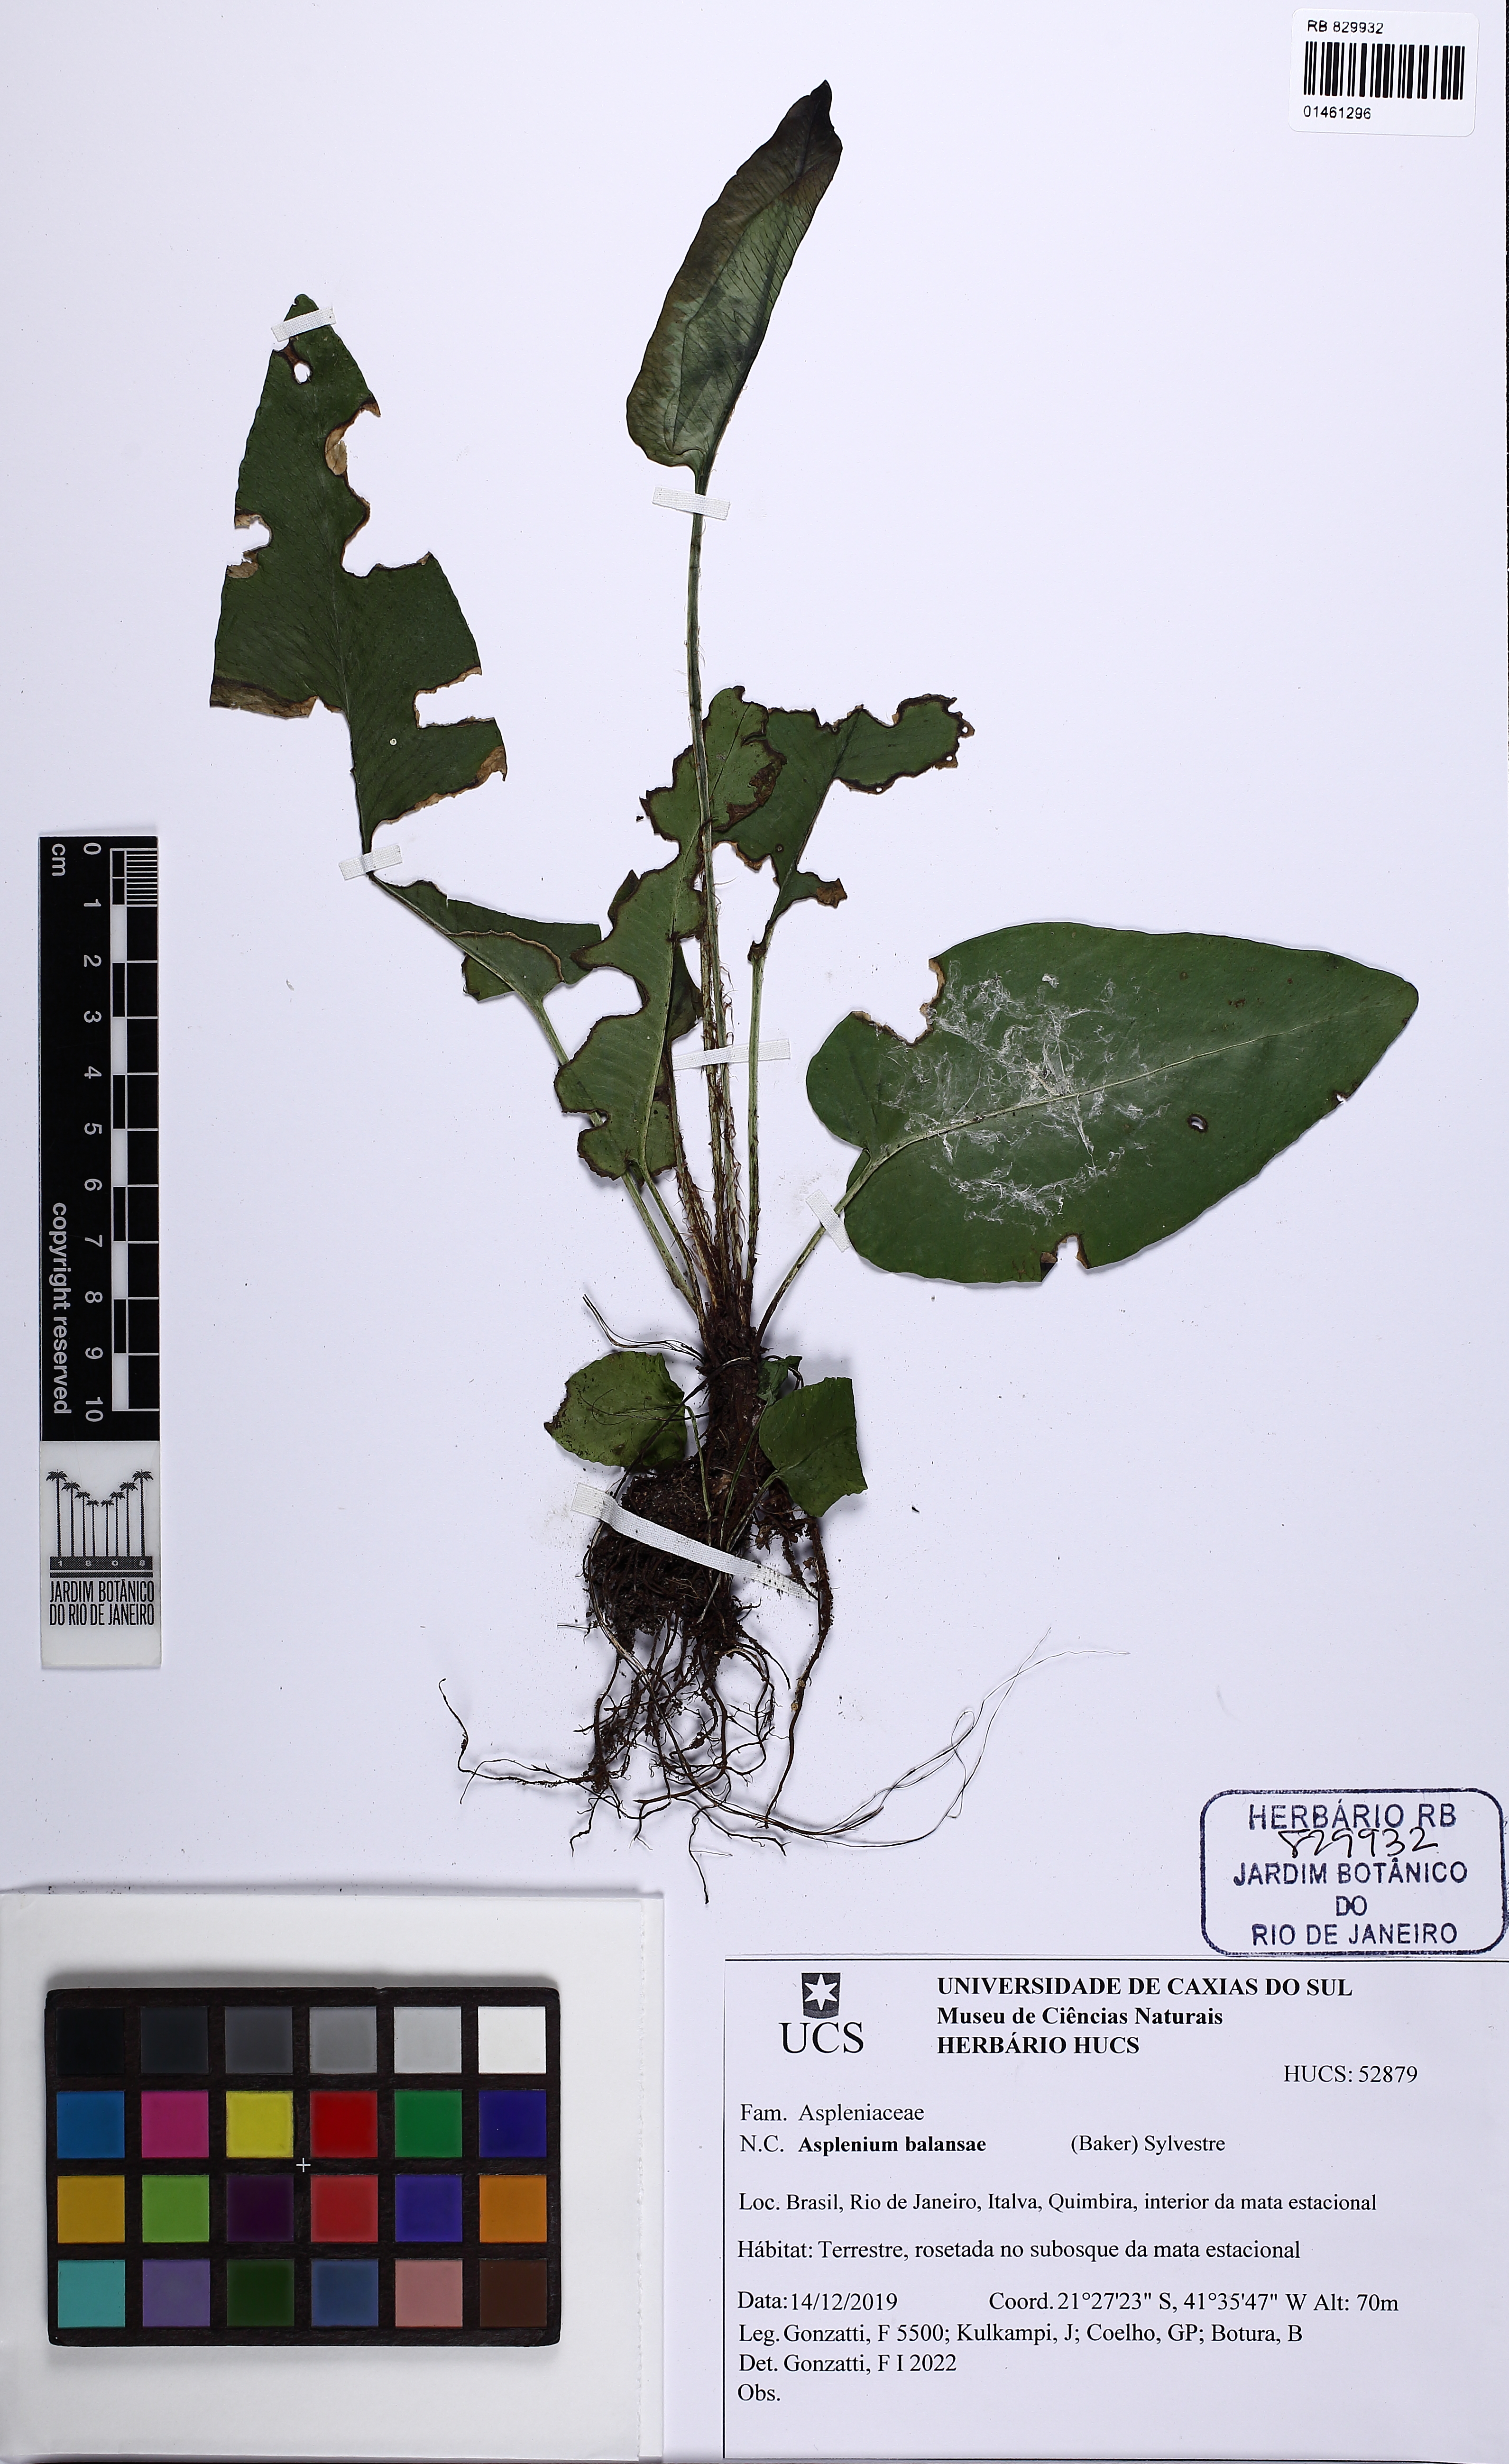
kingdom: Plantae
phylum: Tracheophyta
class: Polypodiopsida
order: Polypodiales
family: Aspleniaceae
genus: Asplenium
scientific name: Asplenium balansae
